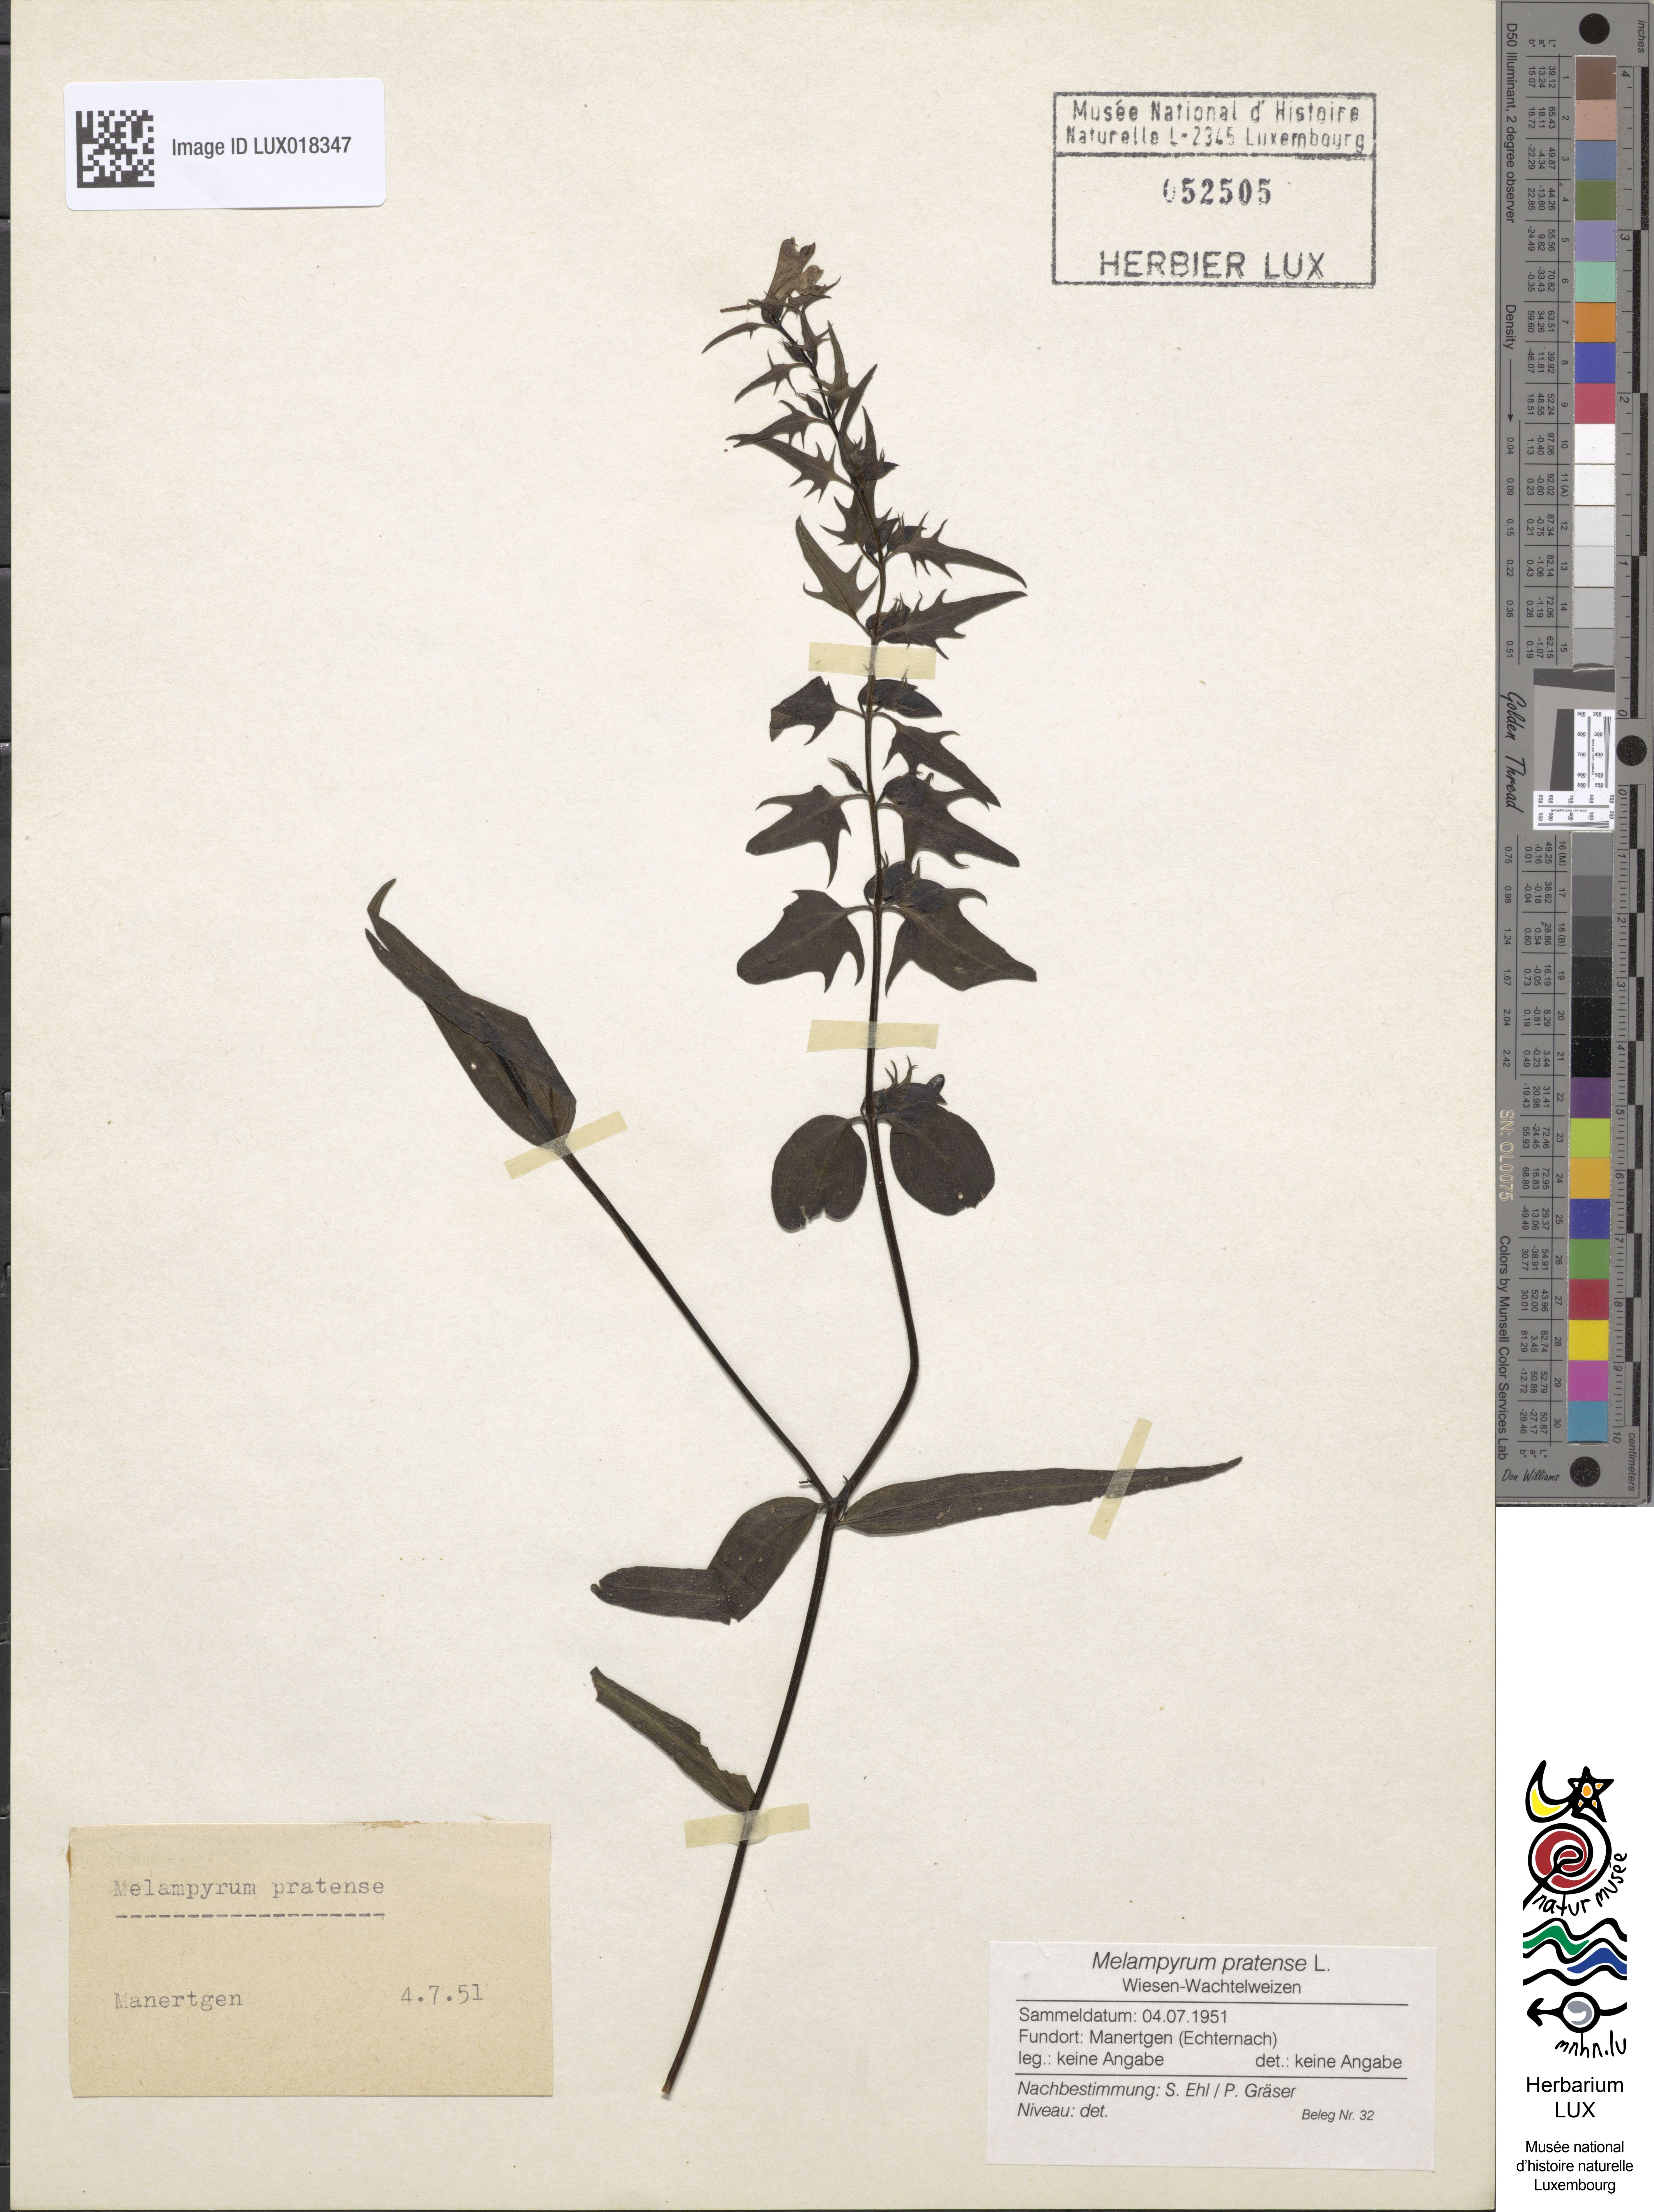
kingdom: Plantae
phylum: Tracheophyta
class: Magnoliopsida
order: Lamiales
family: Orobanchaceae
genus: Melampyrum
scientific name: Melampyrum pratense
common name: Common cow-wheat
